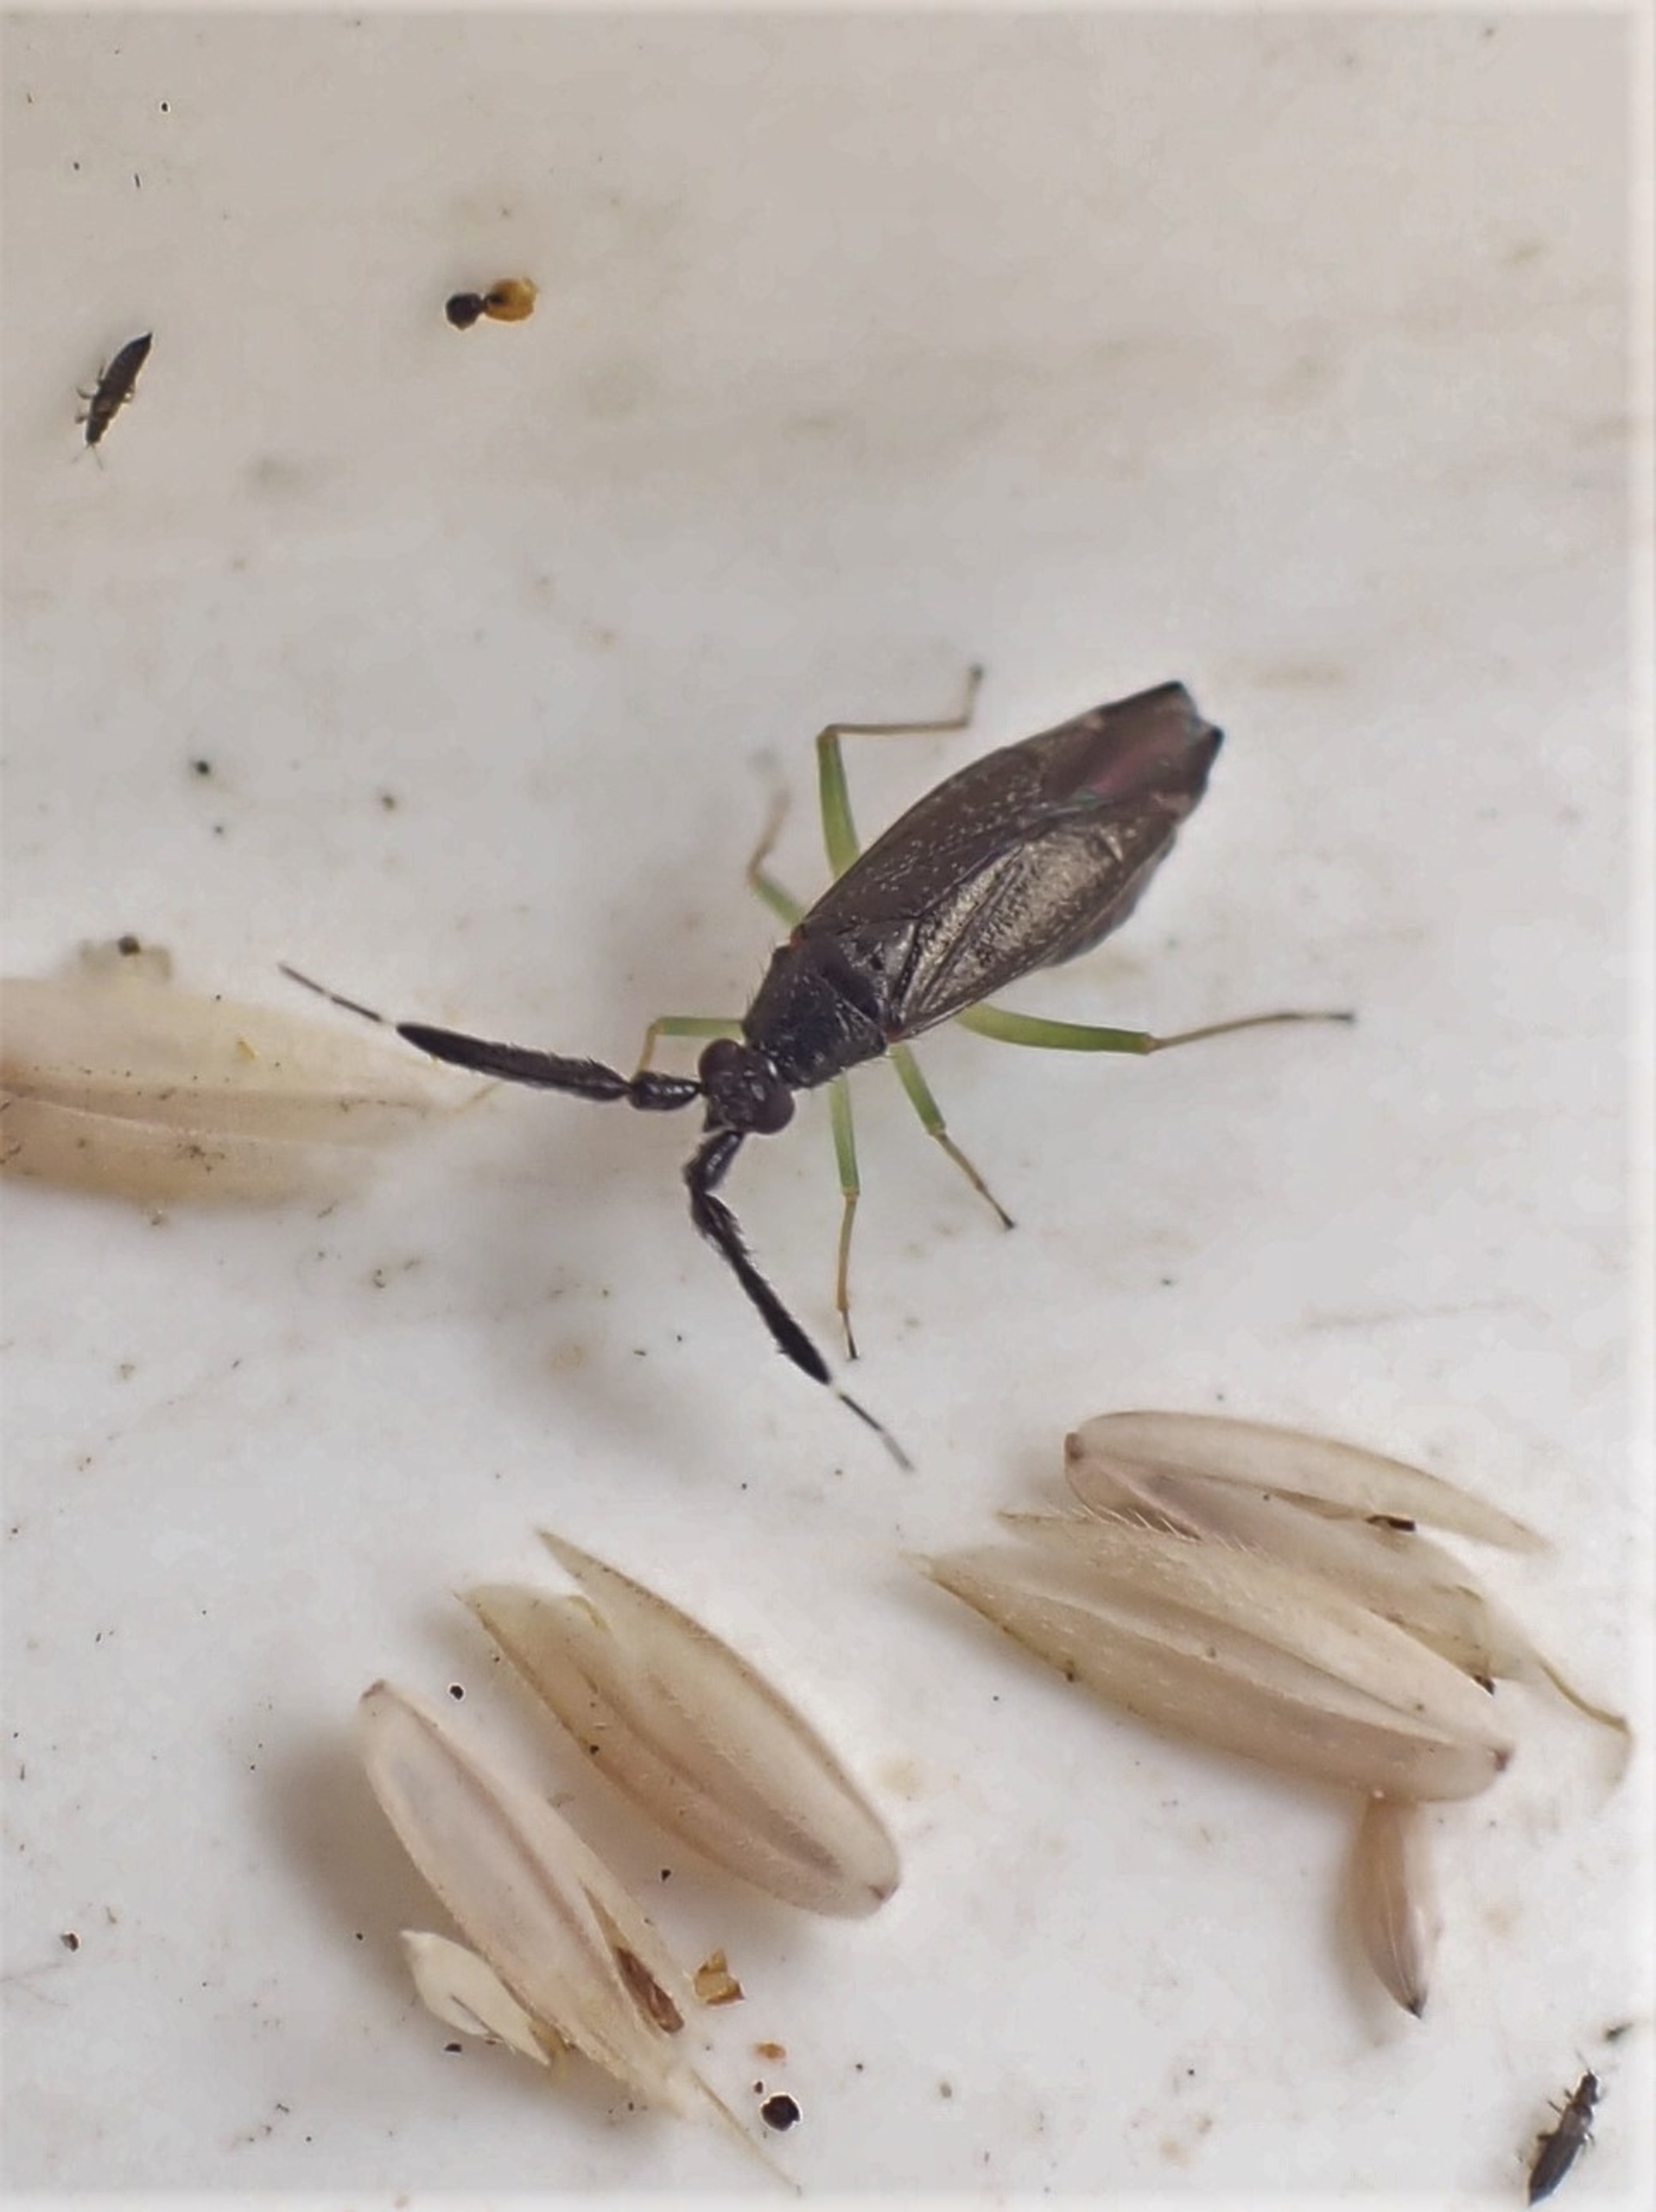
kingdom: Animalia
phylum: Arthropoda
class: Insecta
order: Hemiptera
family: Miridae
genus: Heterotoma
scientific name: Heterotoma planicornis
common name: Køllehornet blomstertæge
